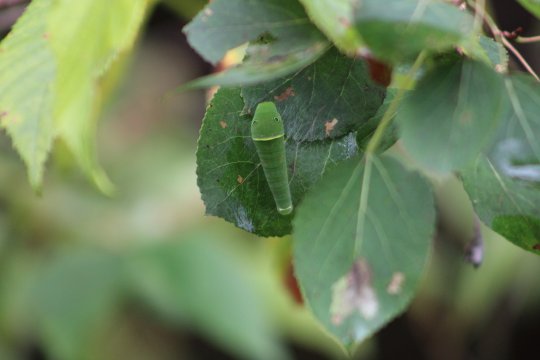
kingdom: Animalia
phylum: Arthropoda
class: Insecta
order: Lepidoptera
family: Papilionidae
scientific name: Papilionidae
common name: Swallowtails and Parnassians
